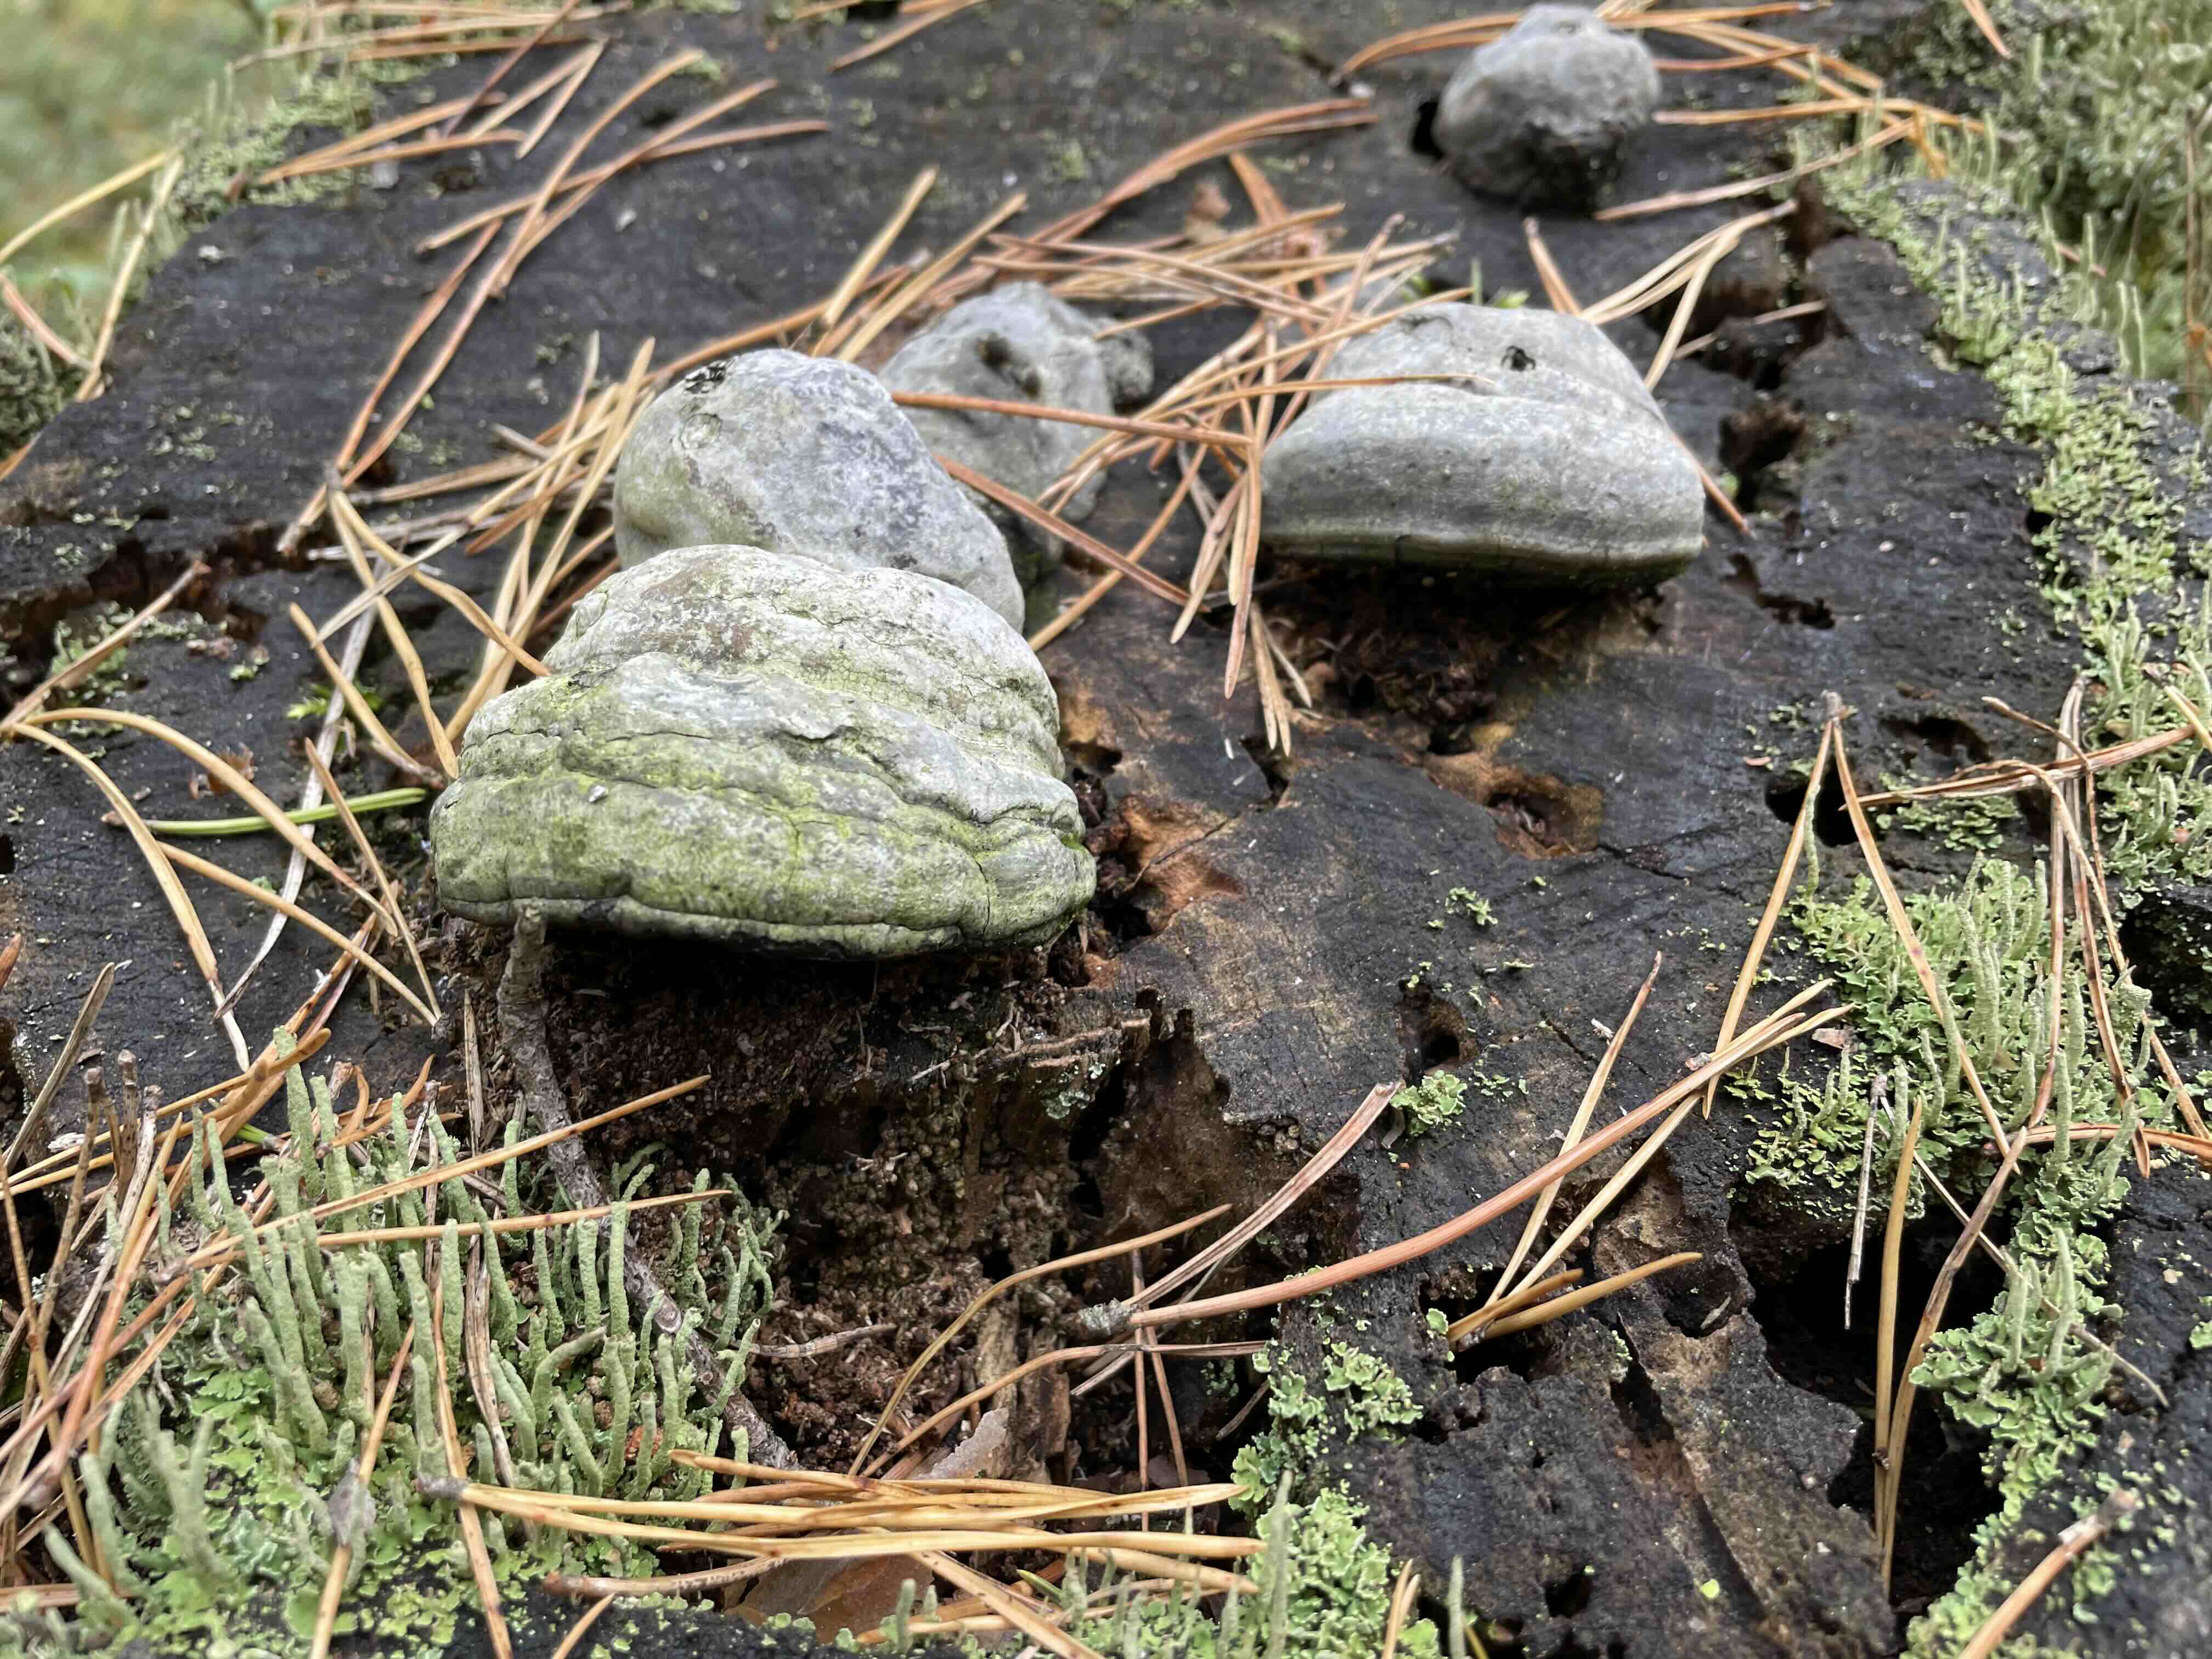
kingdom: Fungi
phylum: Basidiomycota
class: Agaricomycetes
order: Polyporales
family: Polyporaceae
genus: Fomes
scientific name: Fomes fomentarius
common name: tøndersvamp
